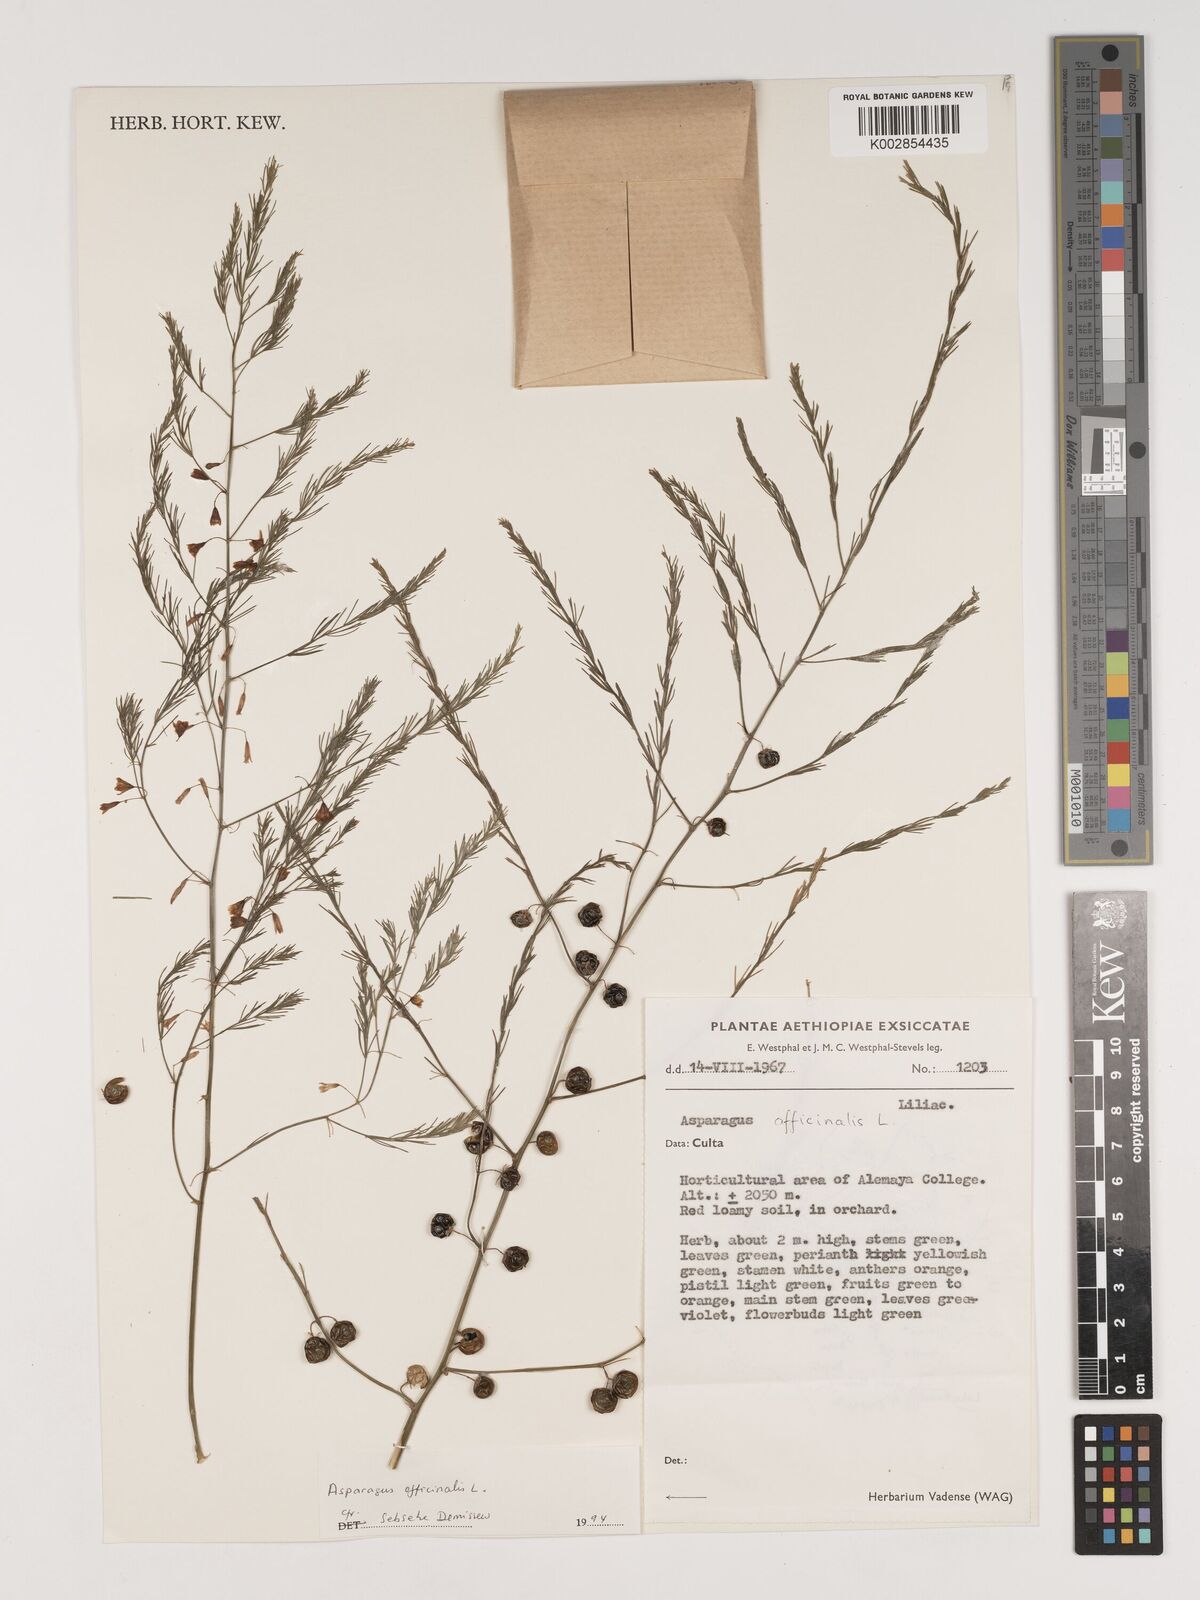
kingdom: Plantae
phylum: Tracheophyta
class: Liliopsida
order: Asparagales
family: Asparagaceae
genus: Asparagus
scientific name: Asparagus officinalis
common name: Garden asparagus
